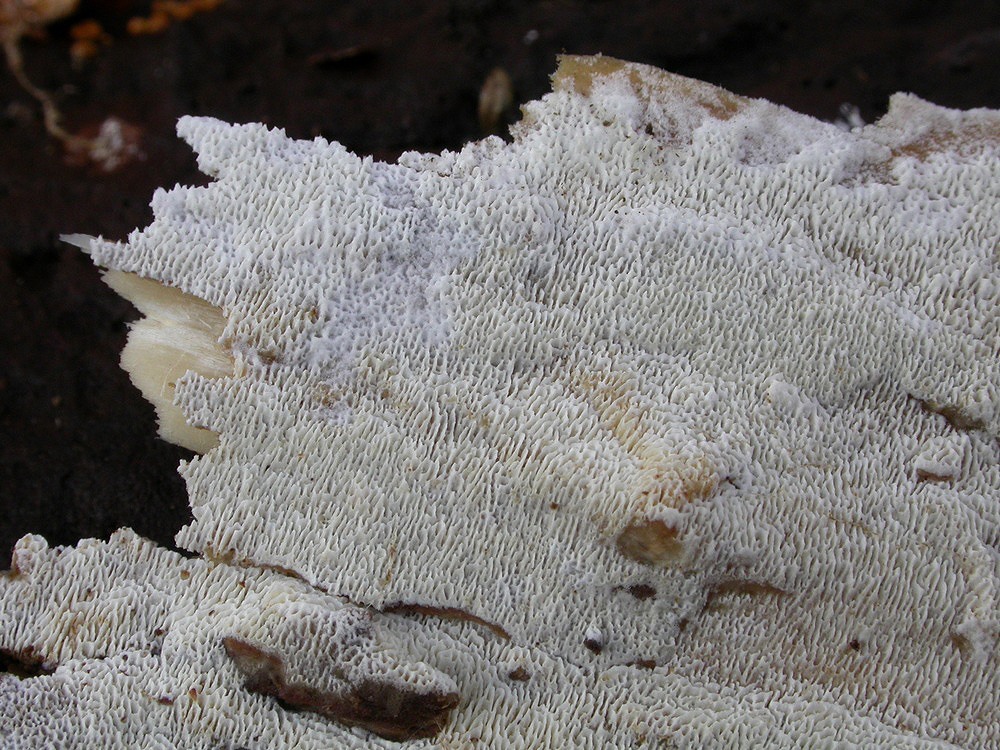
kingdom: Fungi
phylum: Basidiomycota
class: Agaricomycetes
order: Hymenochaetales
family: Schizoporaceae
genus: Xylodon
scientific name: Xylodon subtropicus
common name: labyrint-tandsvamp
